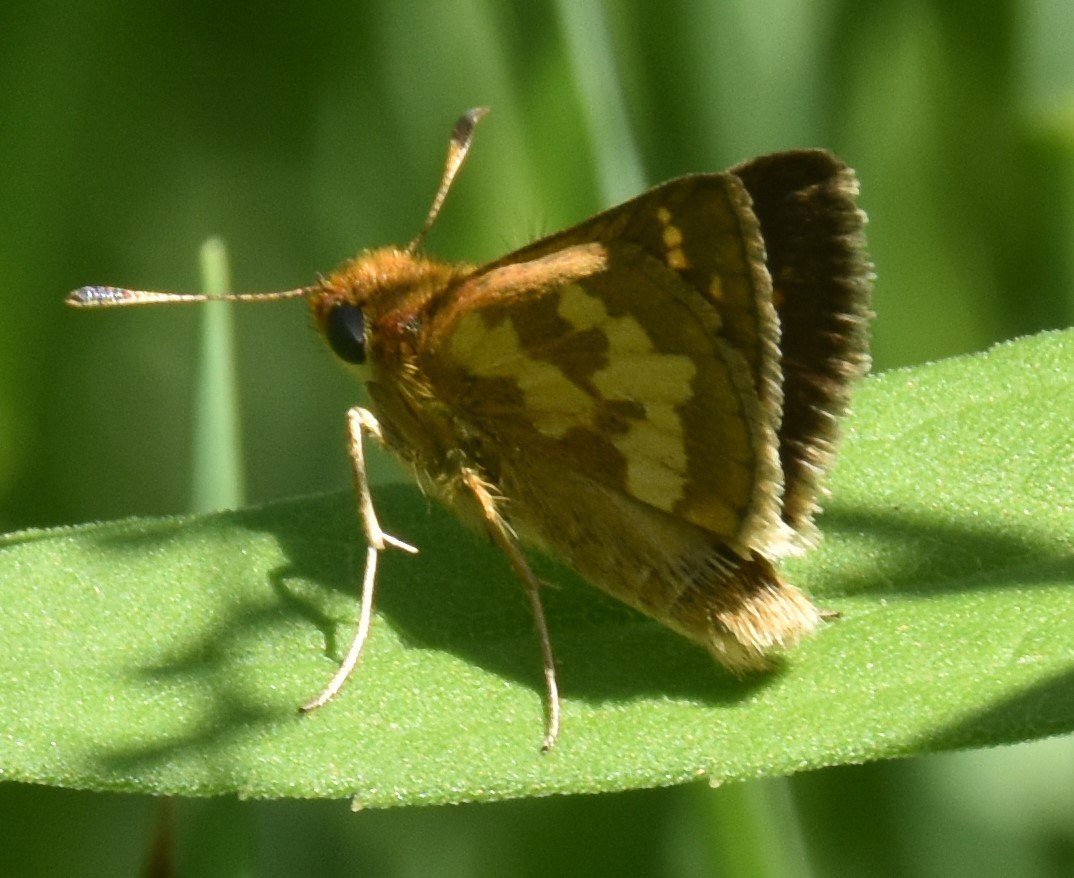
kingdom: Animalia
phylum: Arthropoda
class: Insecta
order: Lepidoptera
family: Hesperiidae
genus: Polites
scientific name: Polites coras
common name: Peck's Skipper
